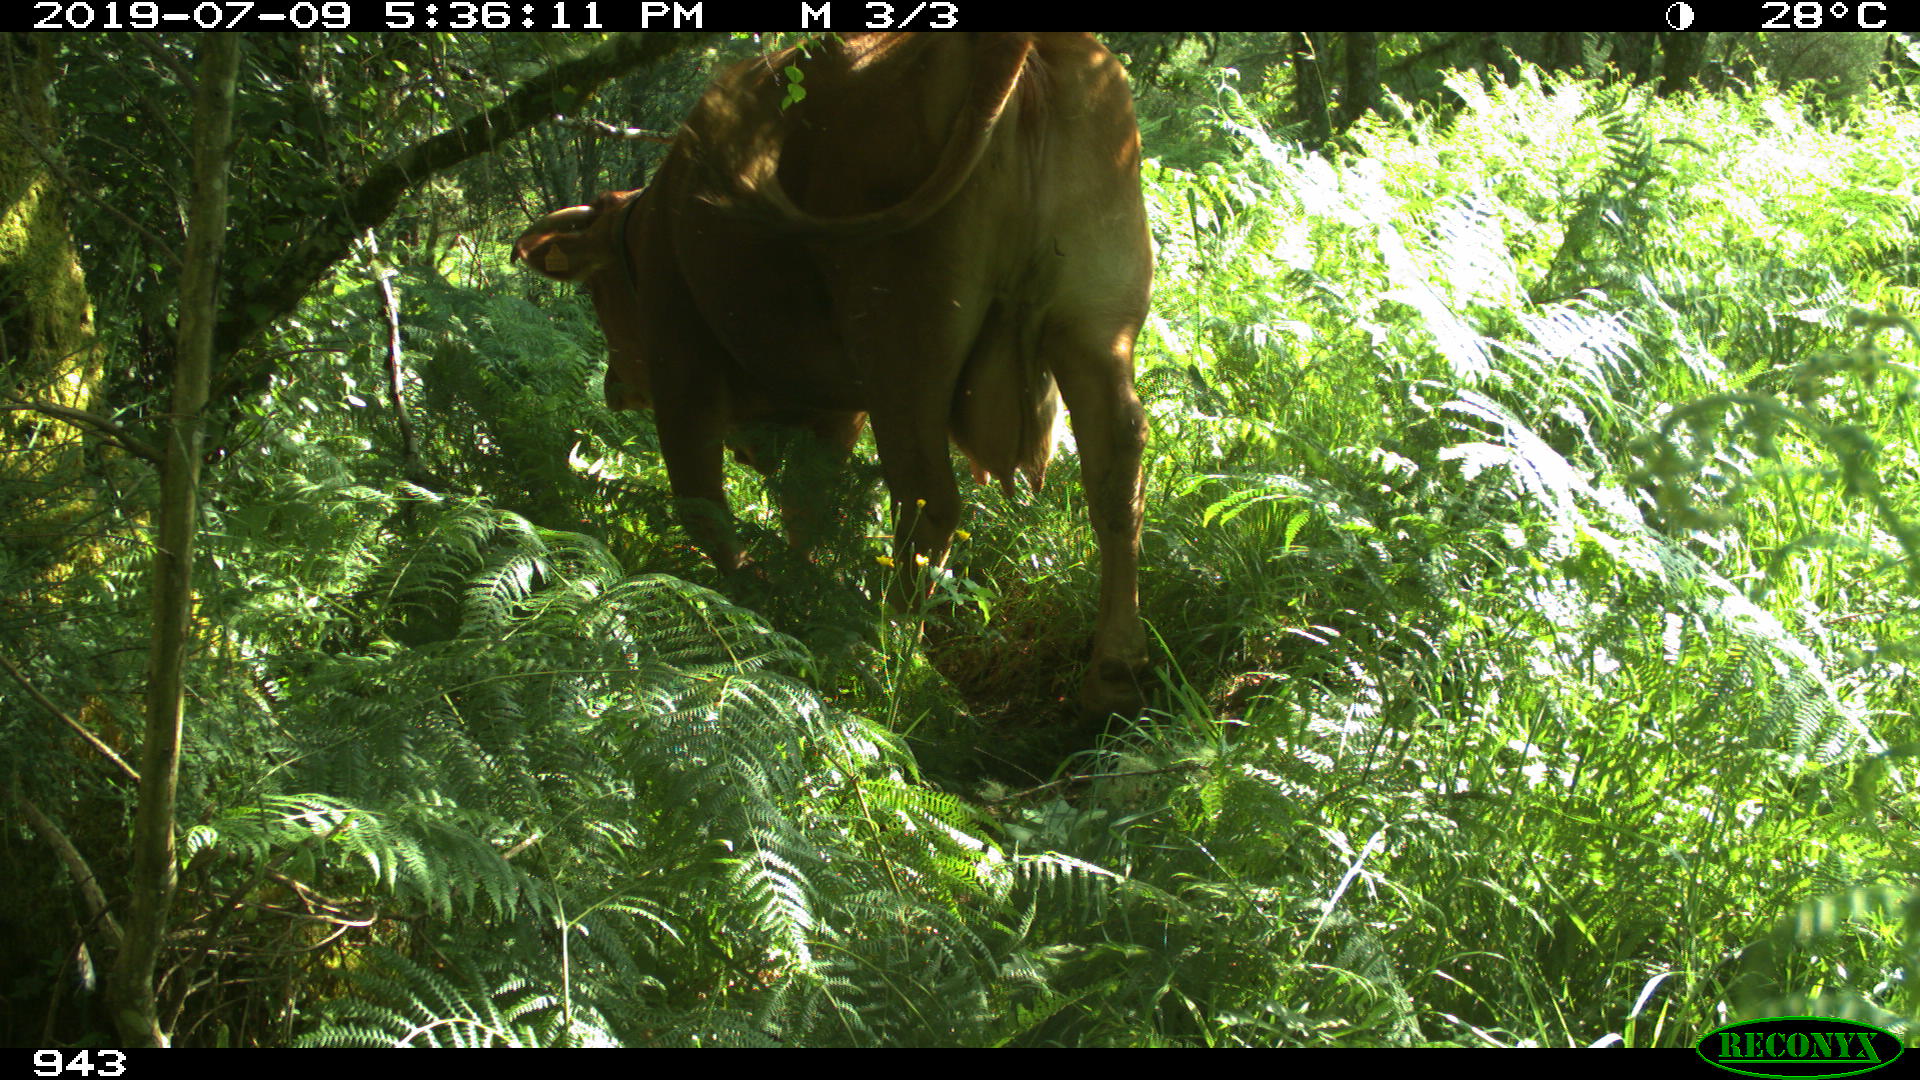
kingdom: Animalia
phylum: Chordata
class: Mammalia
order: Artiodactyla
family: Bovidae
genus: Bos
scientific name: Bos taurus
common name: Domesticated cattle
